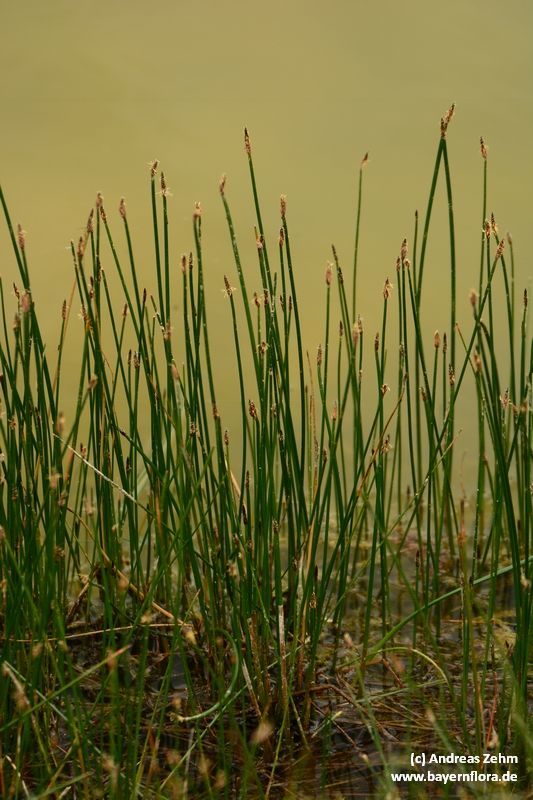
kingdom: Plantae
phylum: Tracheophyta
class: Liliopsida
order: Poales
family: Cyperaceae
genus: Eleocharis
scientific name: Eleocharis palustris
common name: Common spike-rush
